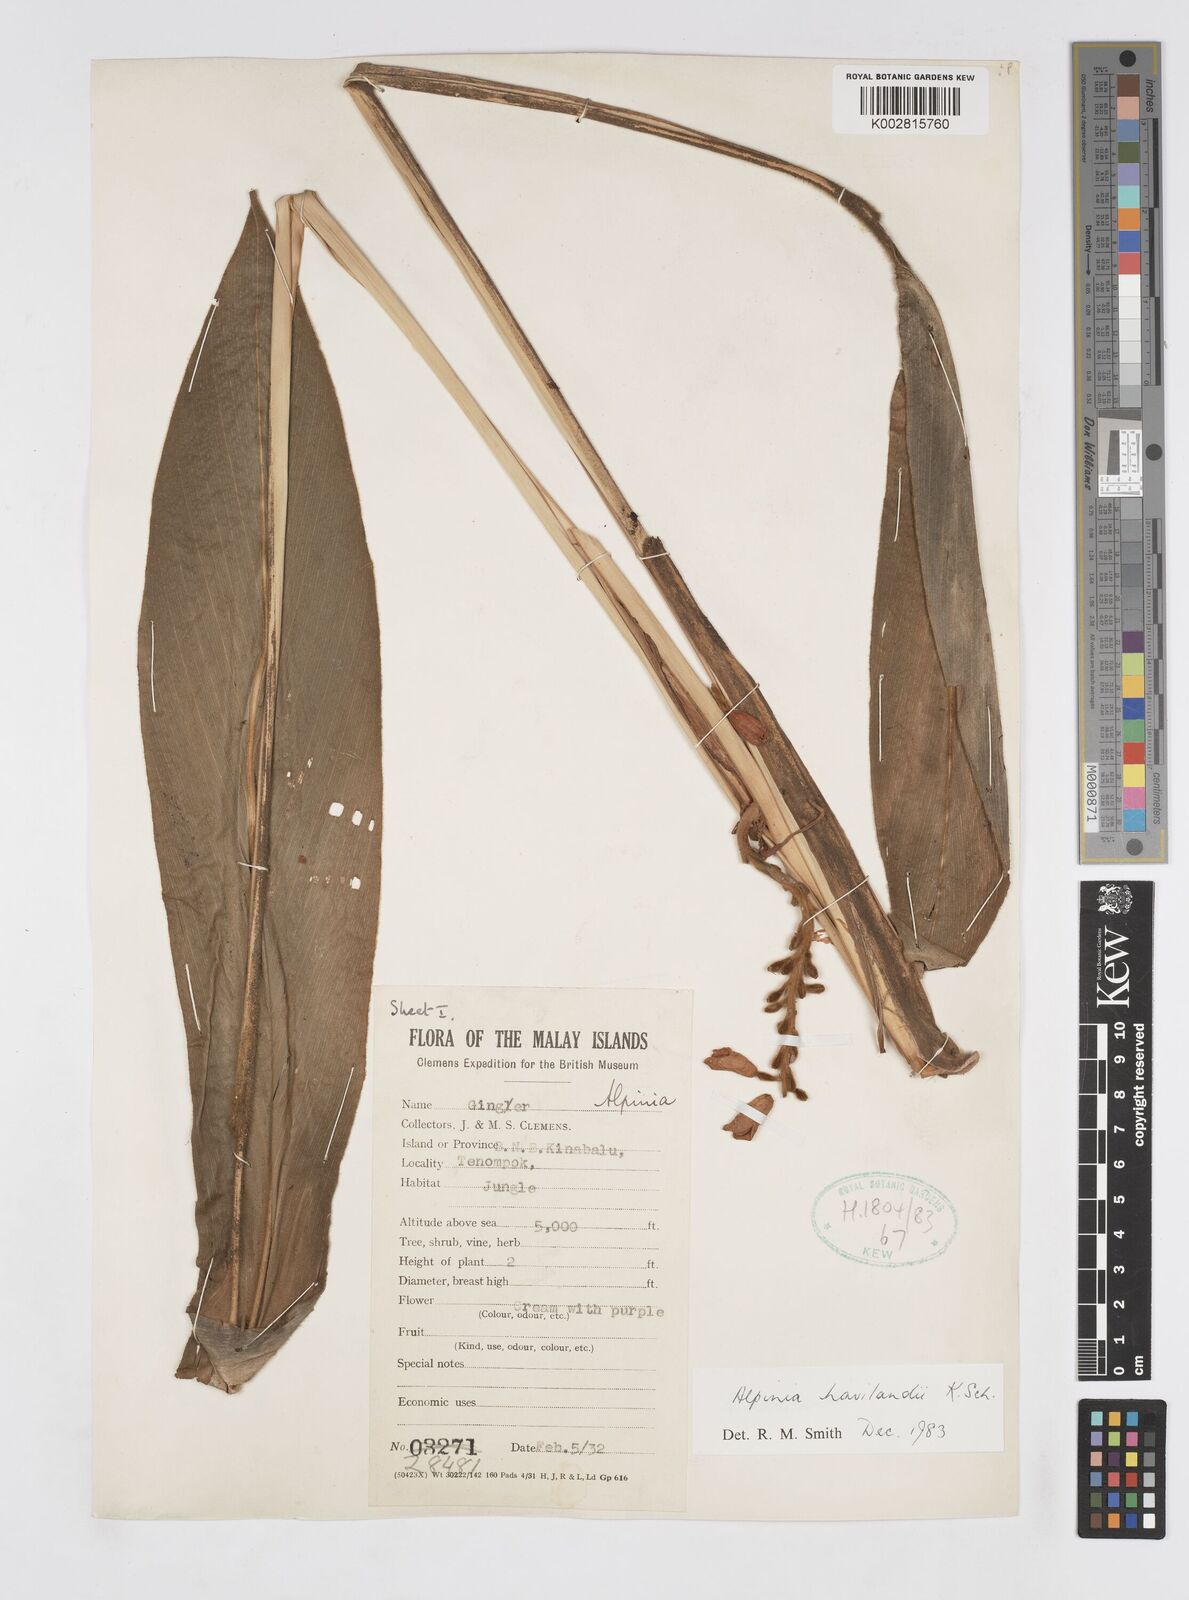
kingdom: Plantae
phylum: Tracheophyta
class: Liliopsida
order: Zingiberales
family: Zingiberaceae
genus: Alpinia
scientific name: Alpinia havilandii
